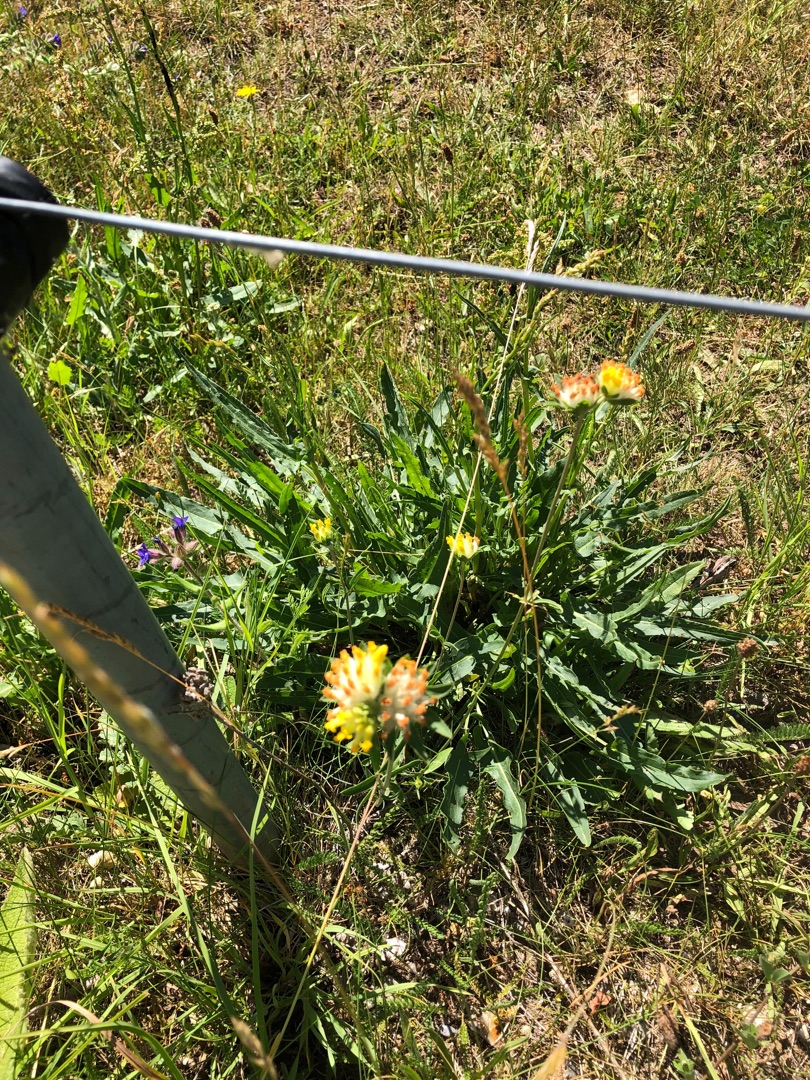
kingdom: Plantae
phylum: Tracheophyta
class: Magnoliopsida
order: Fabales
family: Fabaceae
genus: Anthyllis
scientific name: Anthyllis vulneraria
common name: Rundbælg
